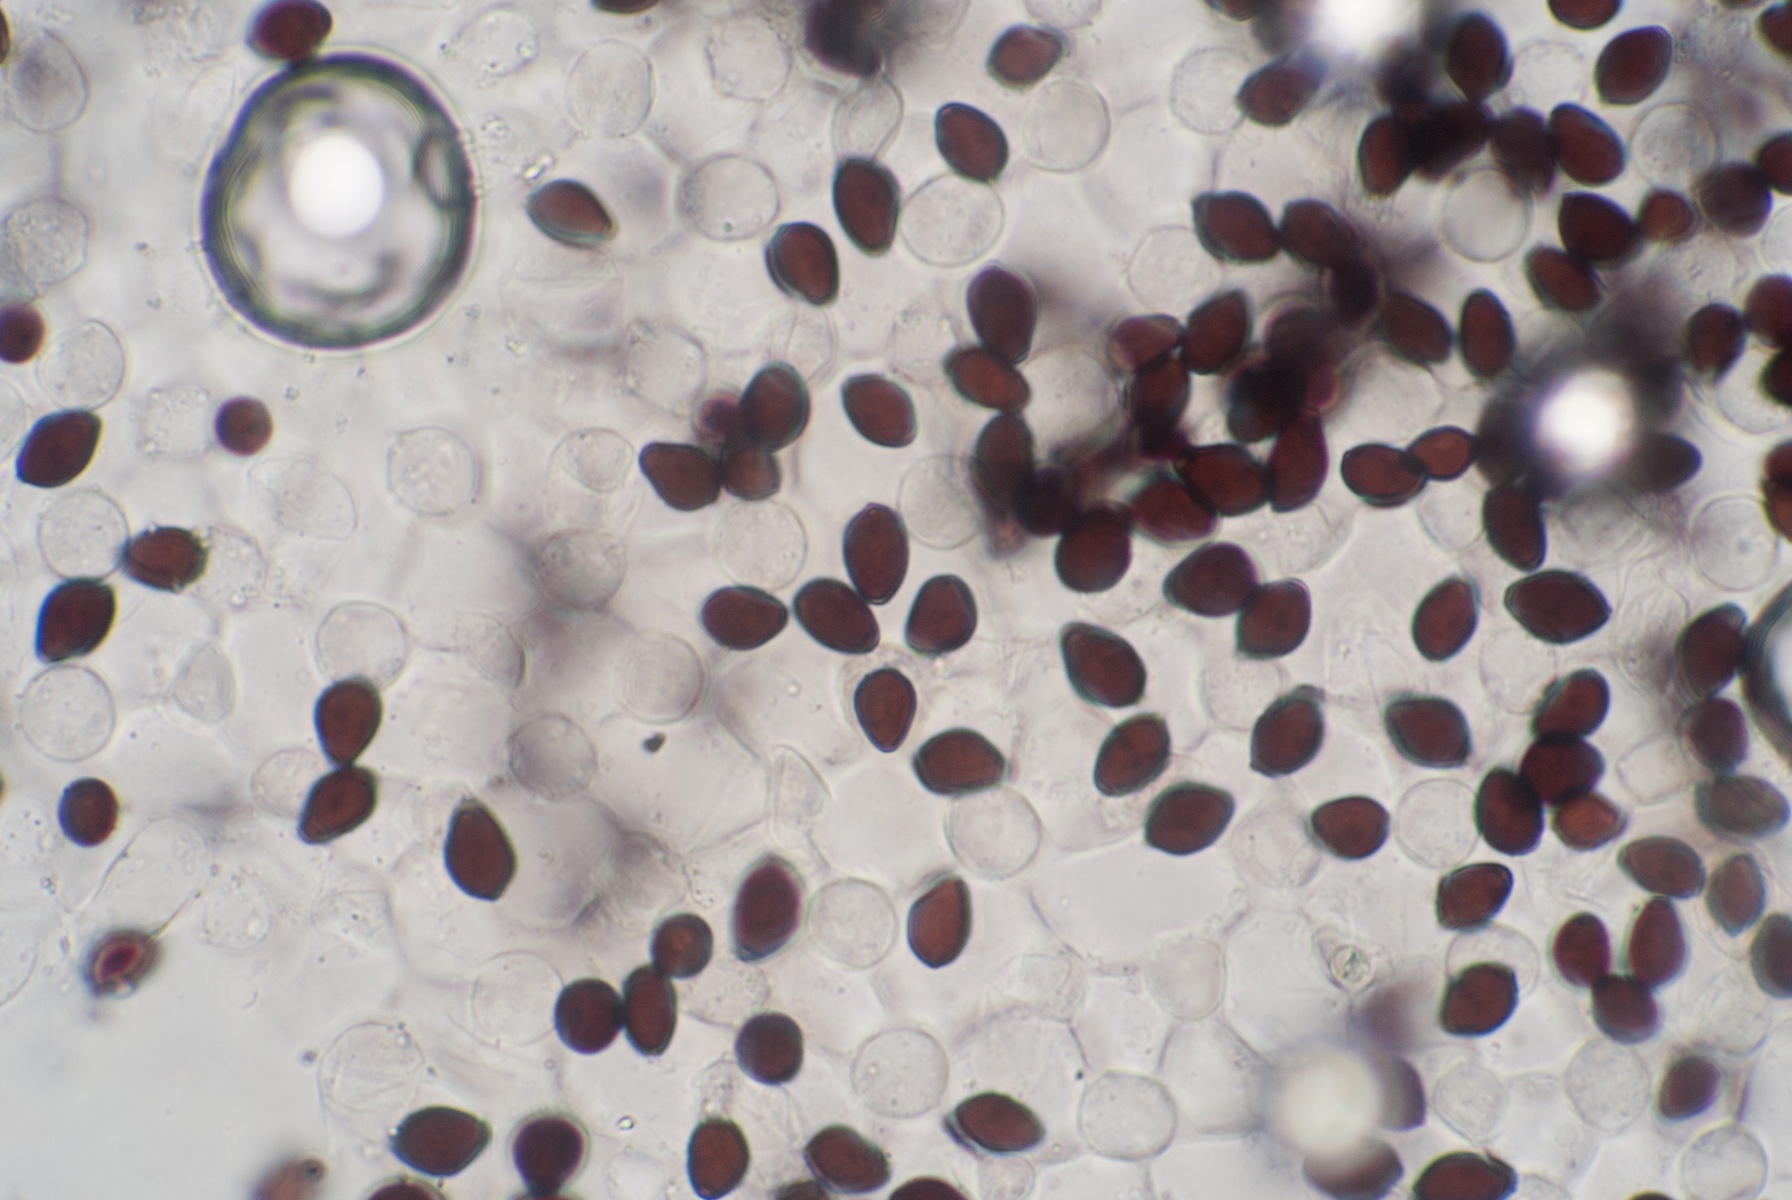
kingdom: Fungi
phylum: Basidiomycota
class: Agaricomycetes
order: Agaricales
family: Psathyrellaceae
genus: Coprinopsis
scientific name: Coprinopsis mitrispora
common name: hul-blækhat
